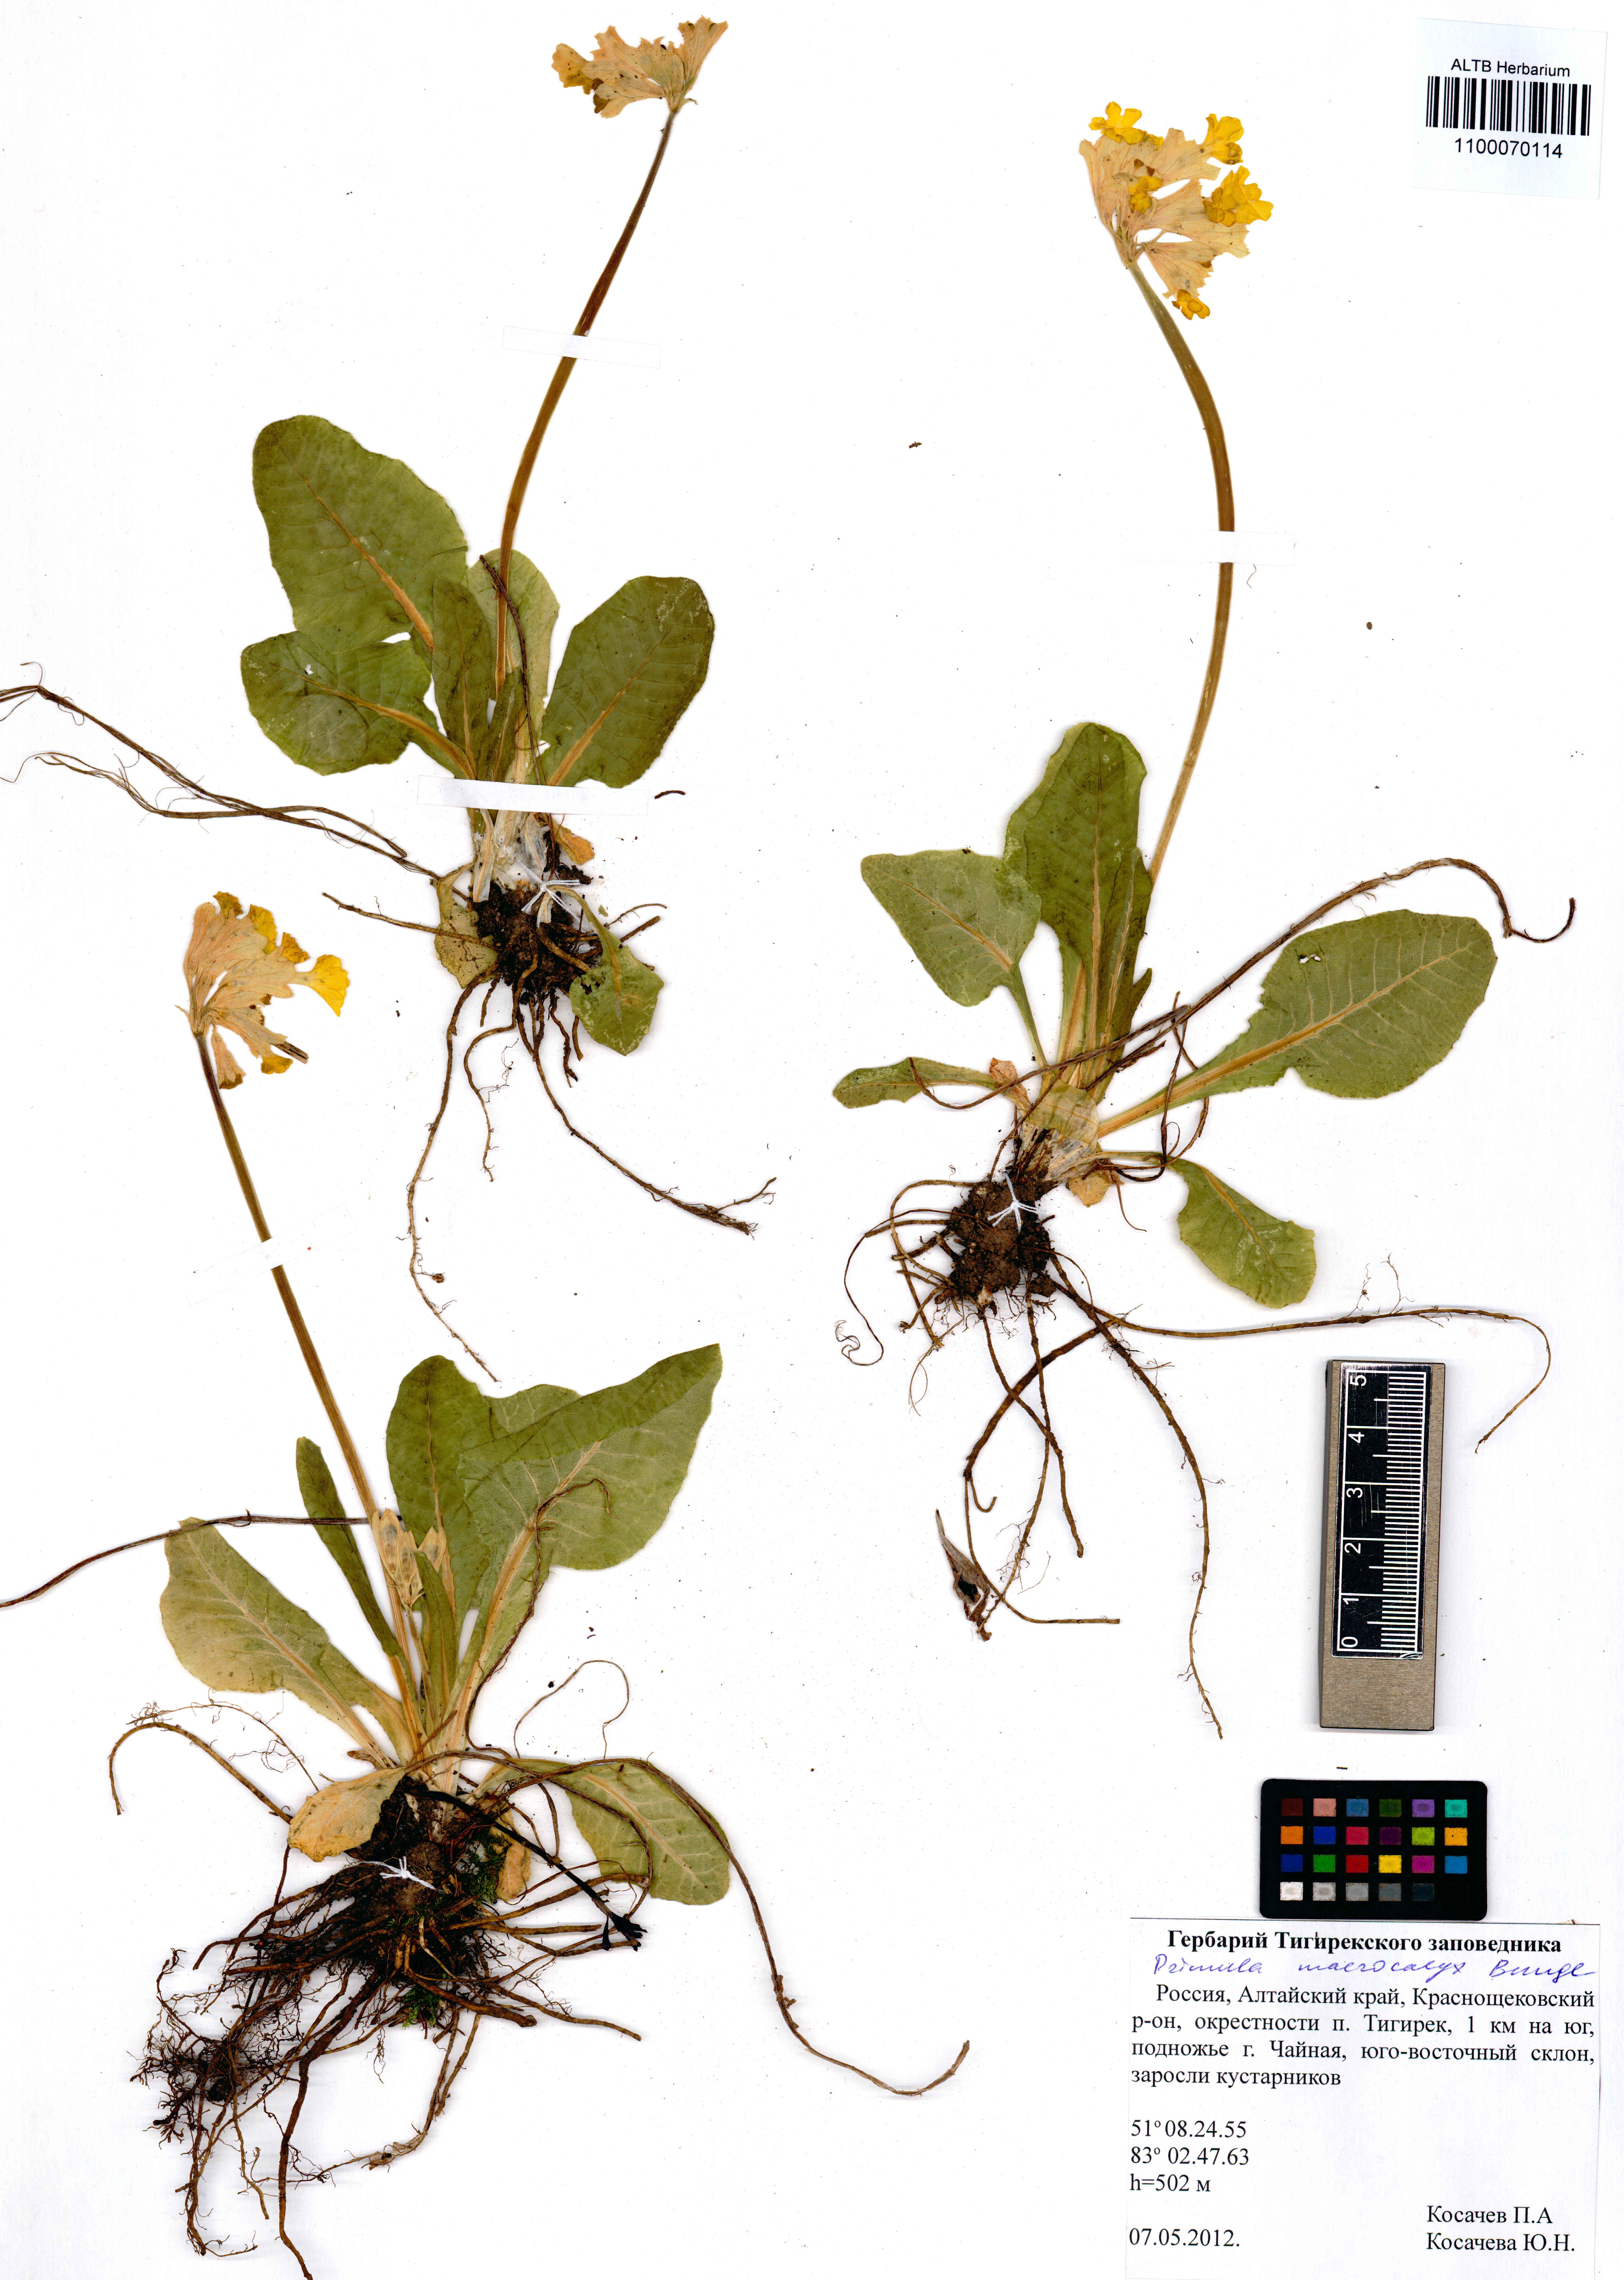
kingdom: Plantae
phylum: Tracheophyta
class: Magnoliopsida
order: Ericales
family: Primulaceae
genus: Primula
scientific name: Primula veris
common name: Cowslip
